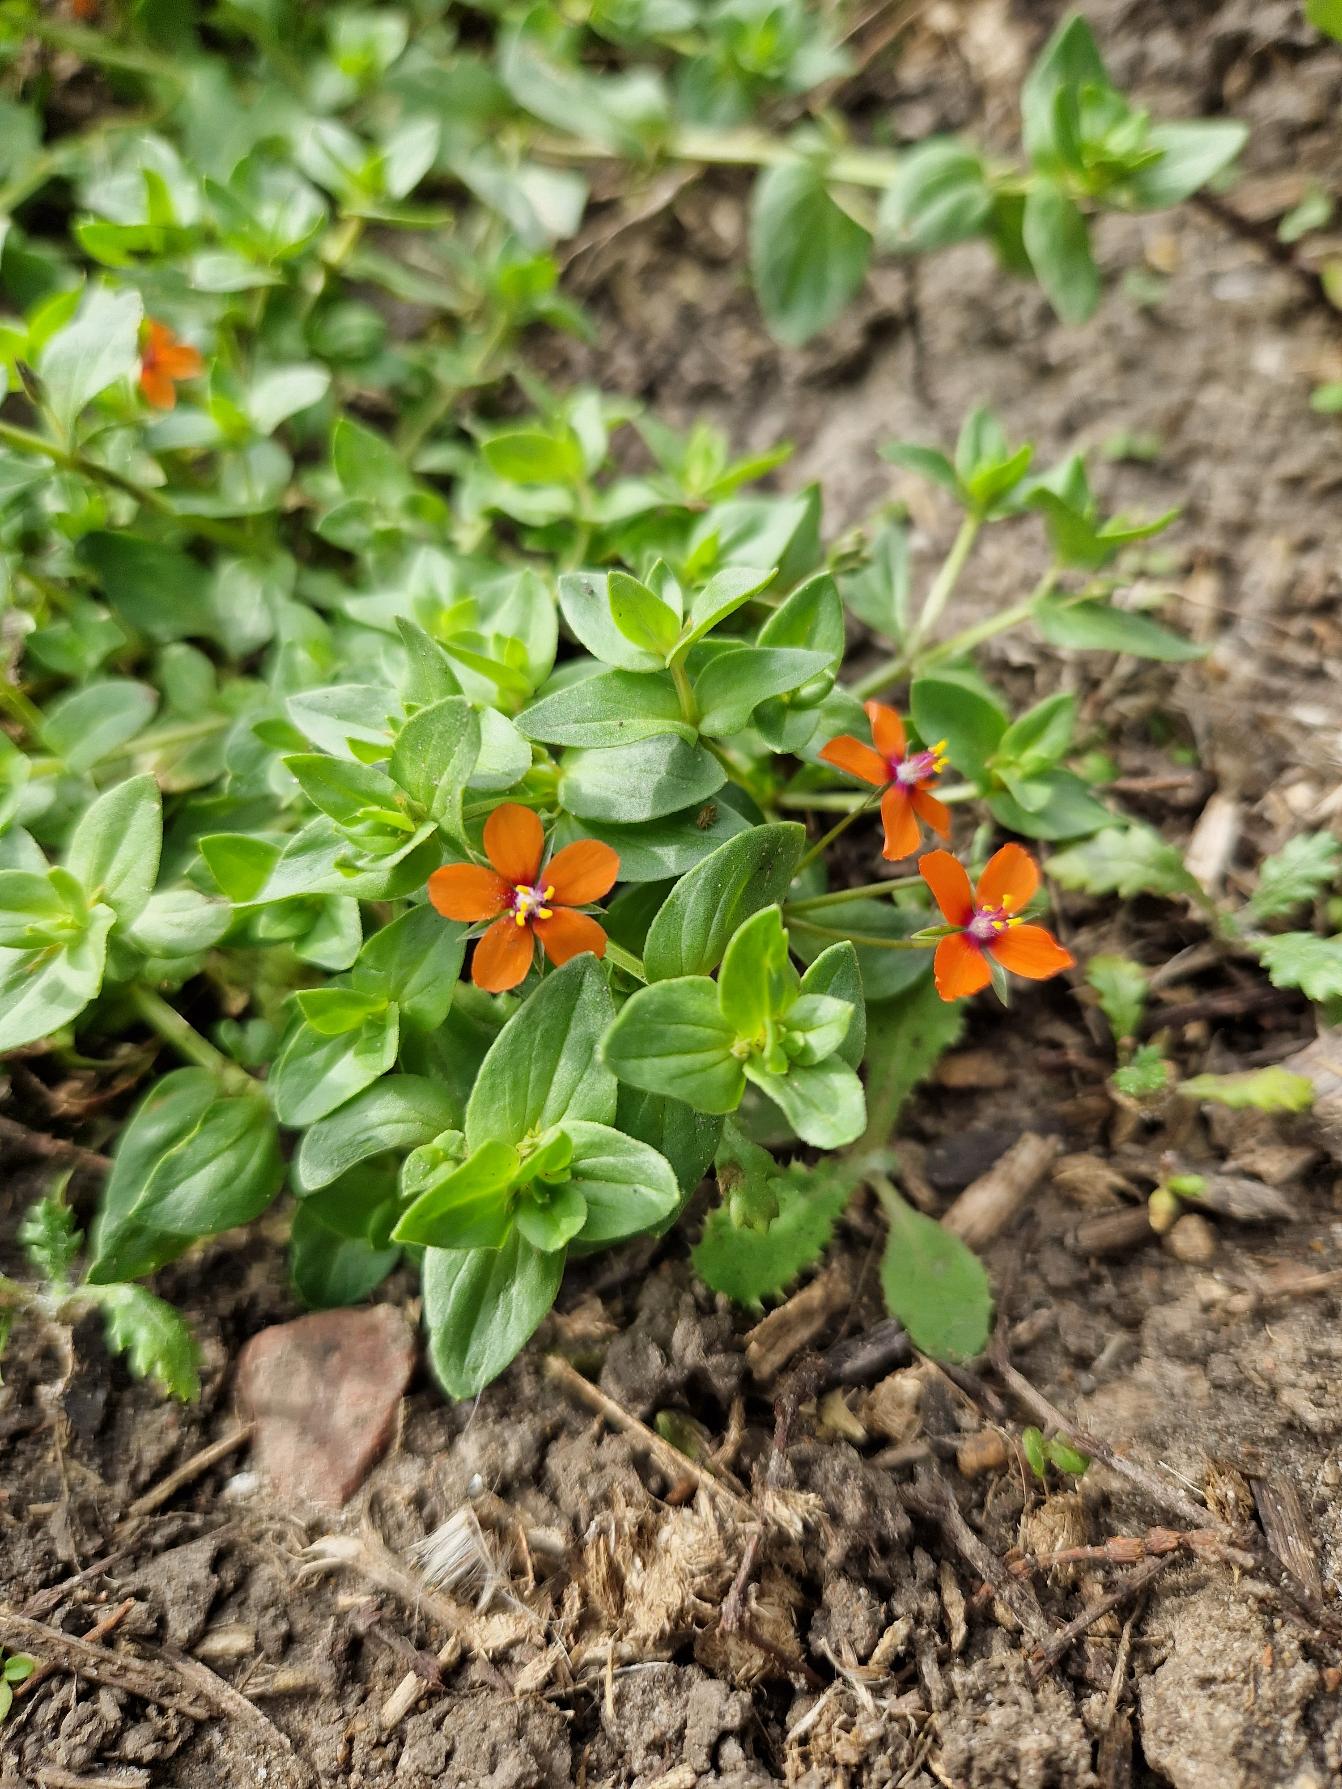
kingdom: Plantae
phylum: Tracheophyta
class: Magnoliopsida
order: Ericales
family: Primulaceae
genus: Lysimachia
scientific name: Lysimachia arvensis
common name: Rød arve
